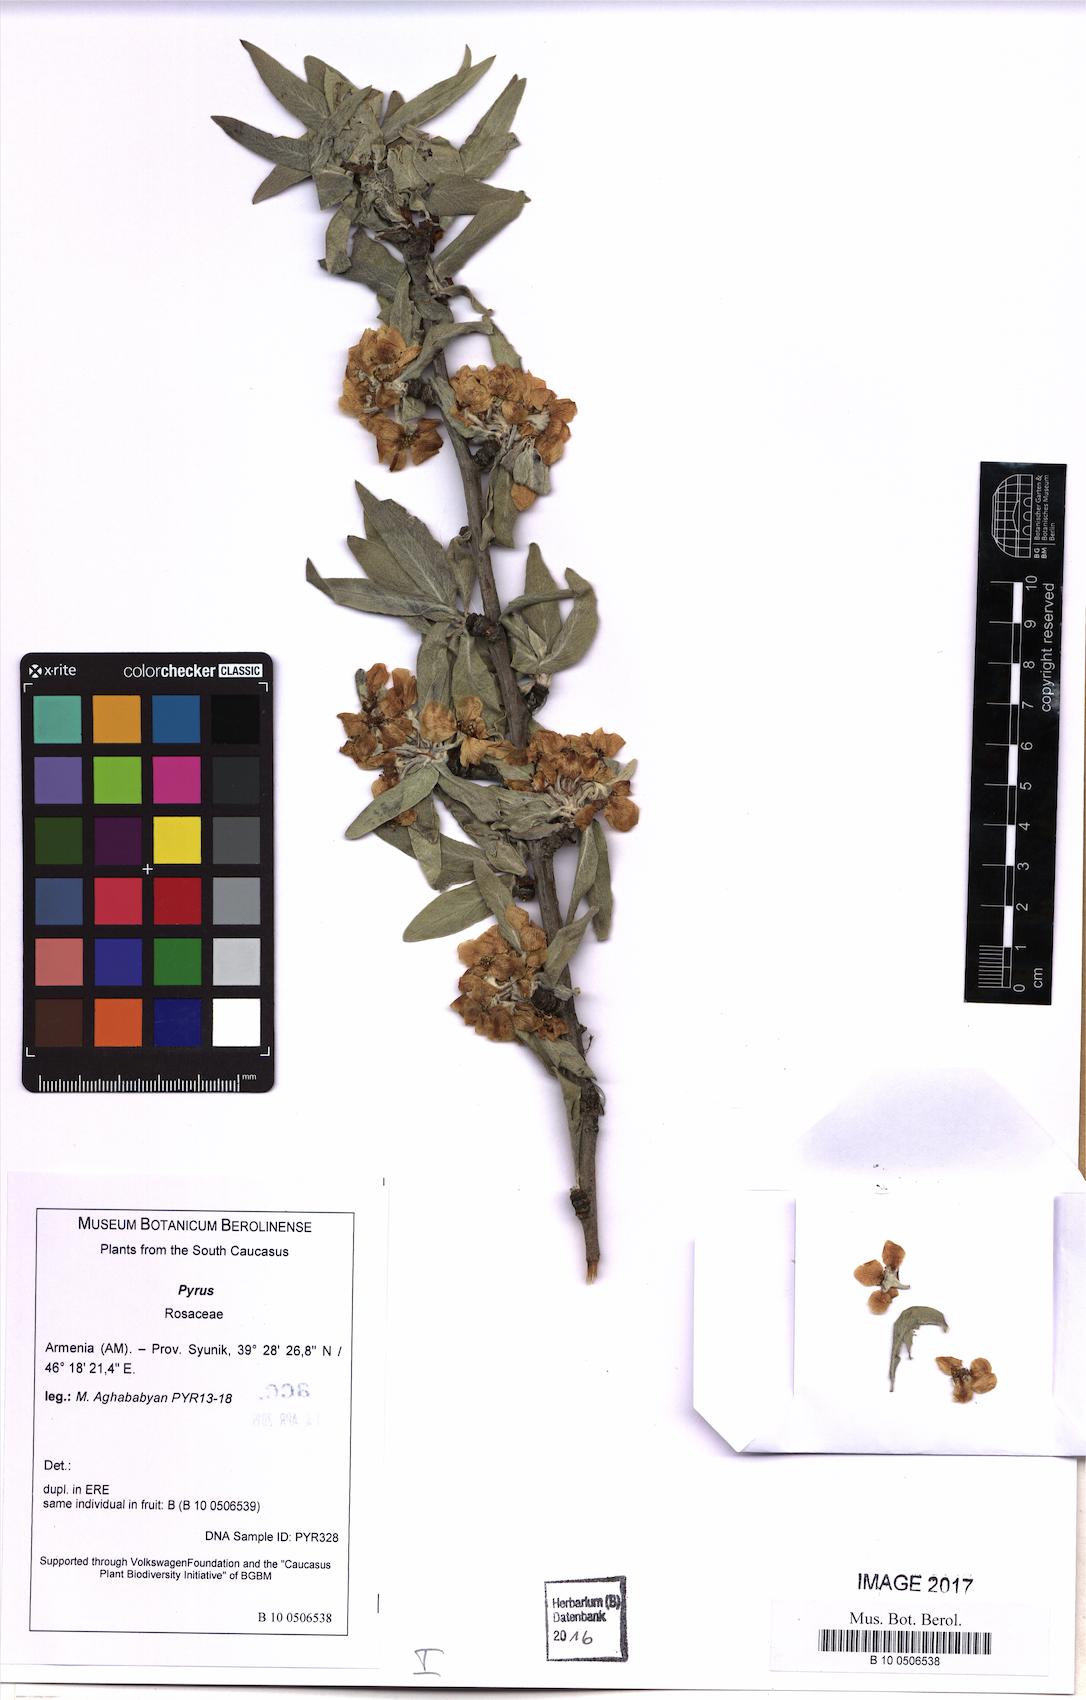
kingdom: Plantae
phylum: Tracheophyta
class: Magnoliopsida
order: Rosales
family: Rosaceae
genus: Pyrus
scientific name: Pyrus
